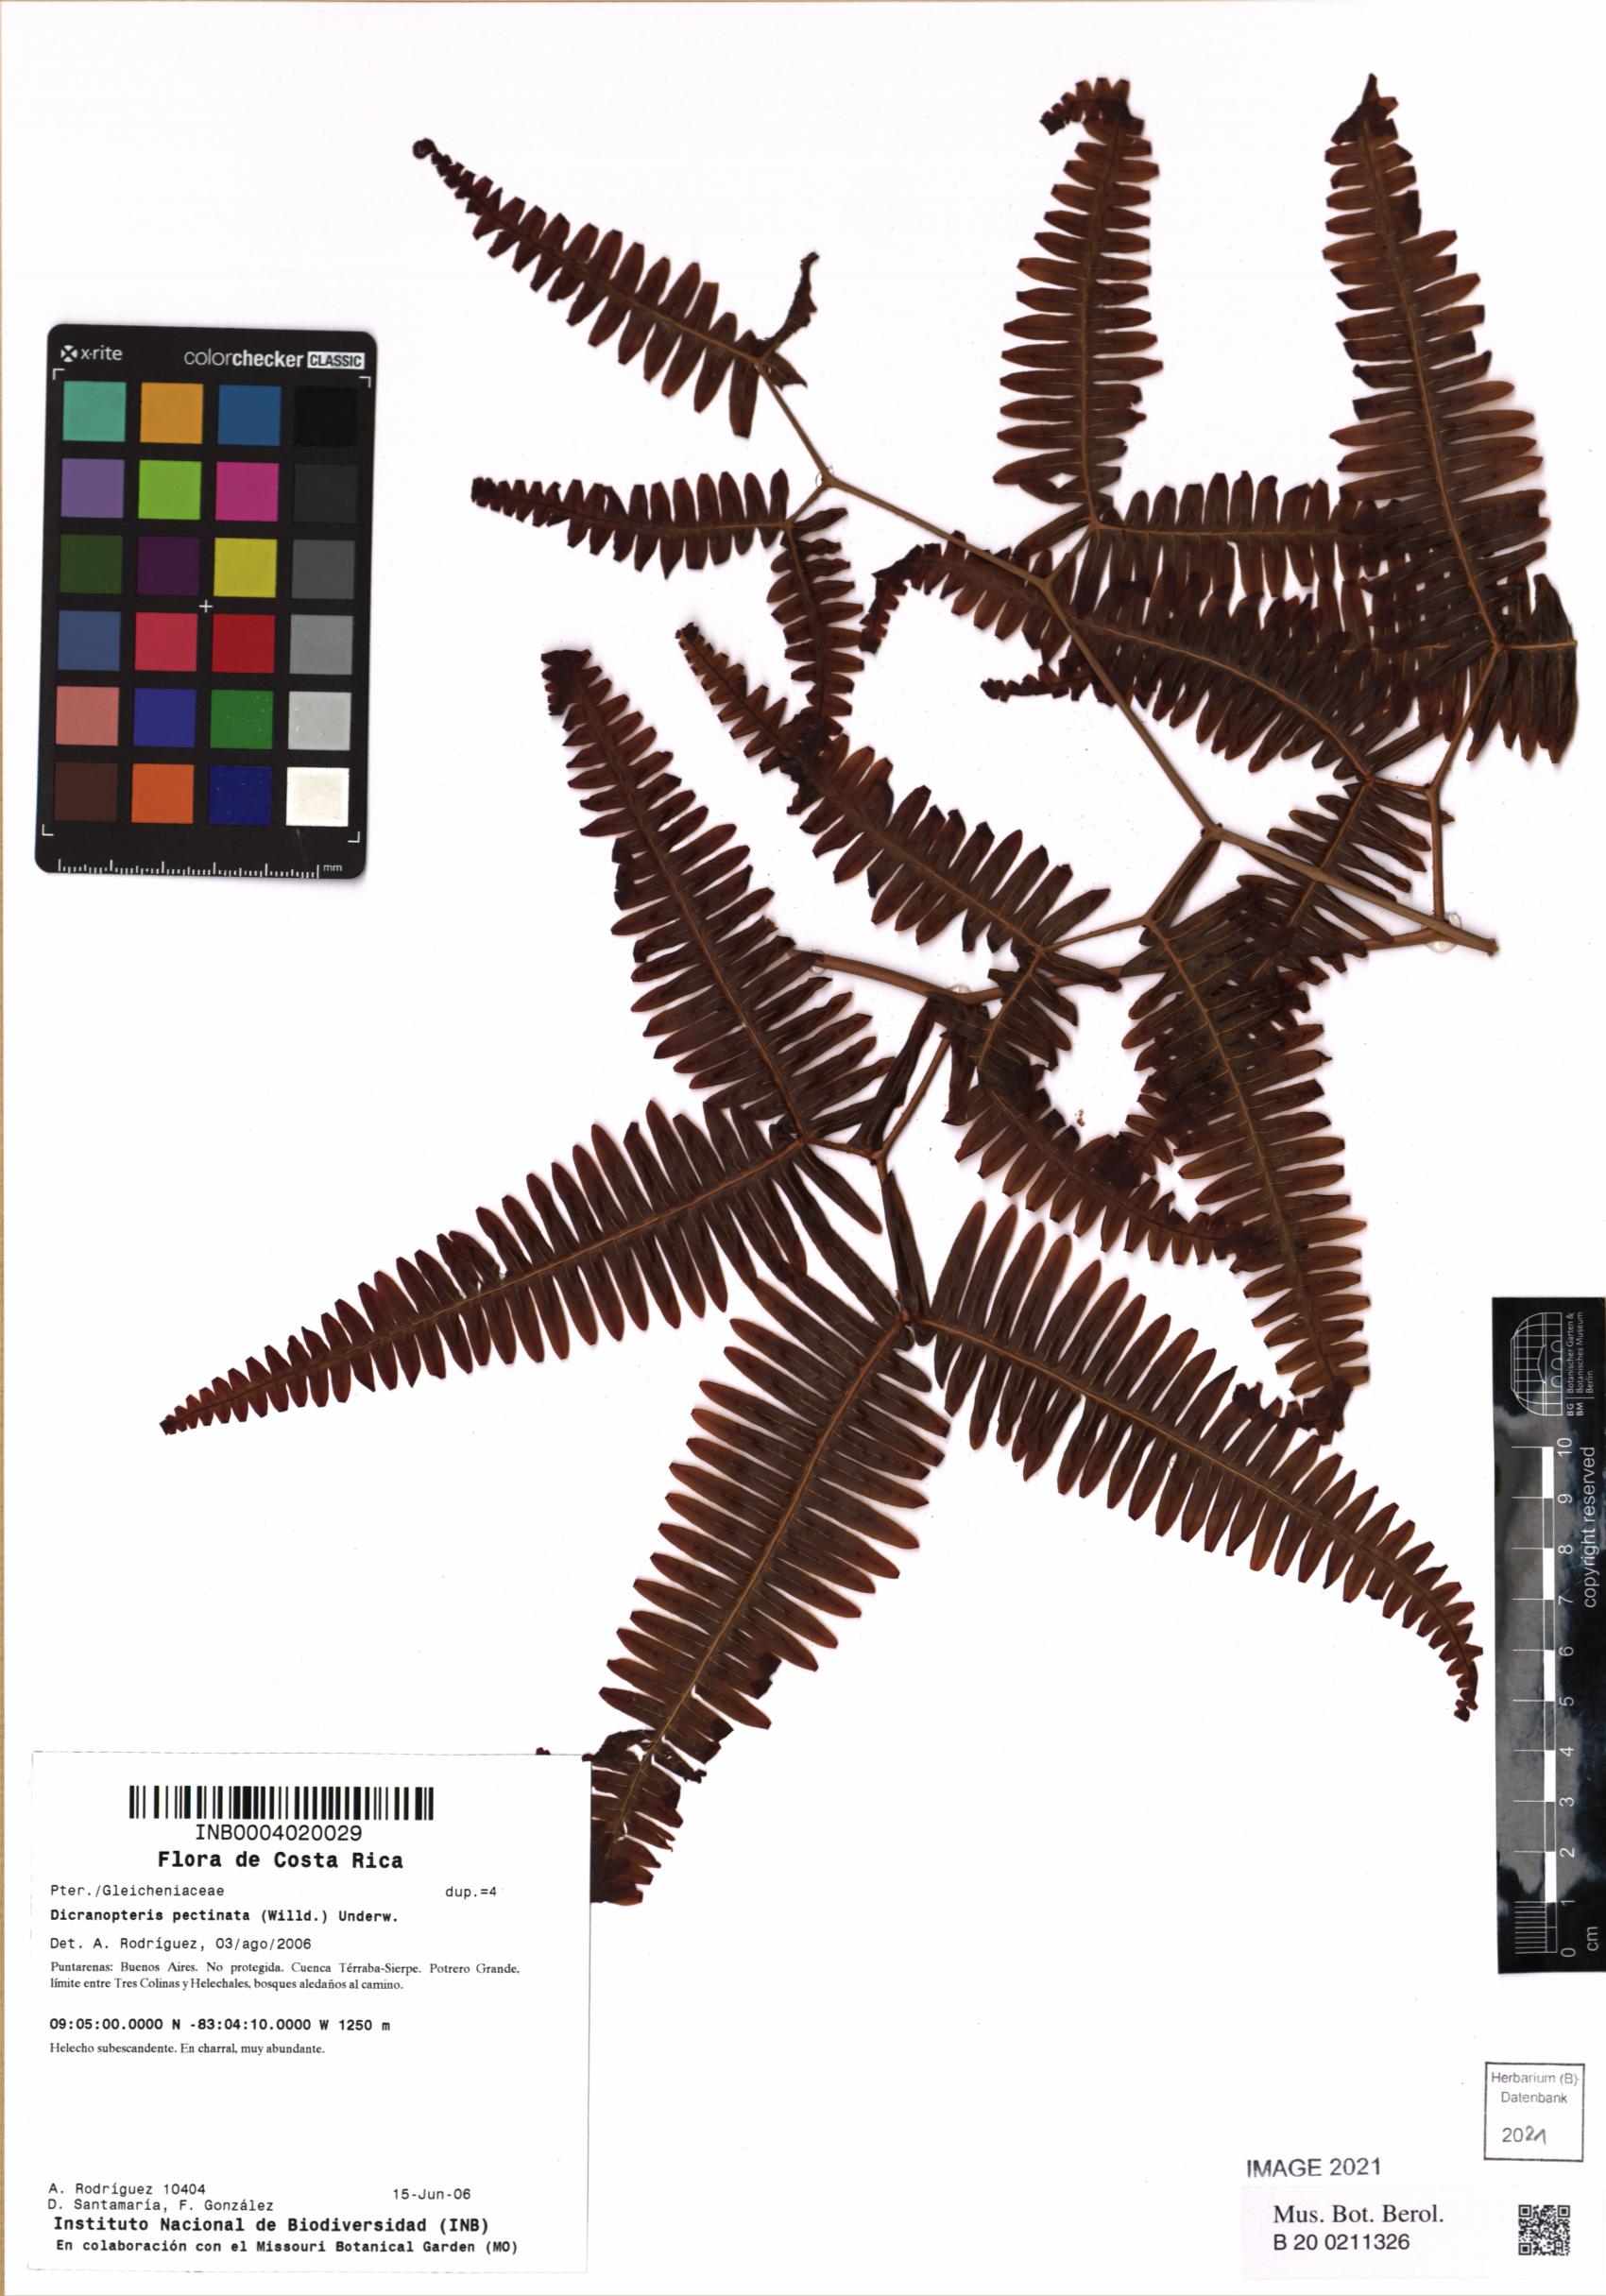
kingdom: Plantae
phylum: Tracheophyta
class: Polypodiopsida
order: Gleicheniales
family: Gleicheniaceae
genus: Gleichenella
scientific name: Gleichenella pectinata
